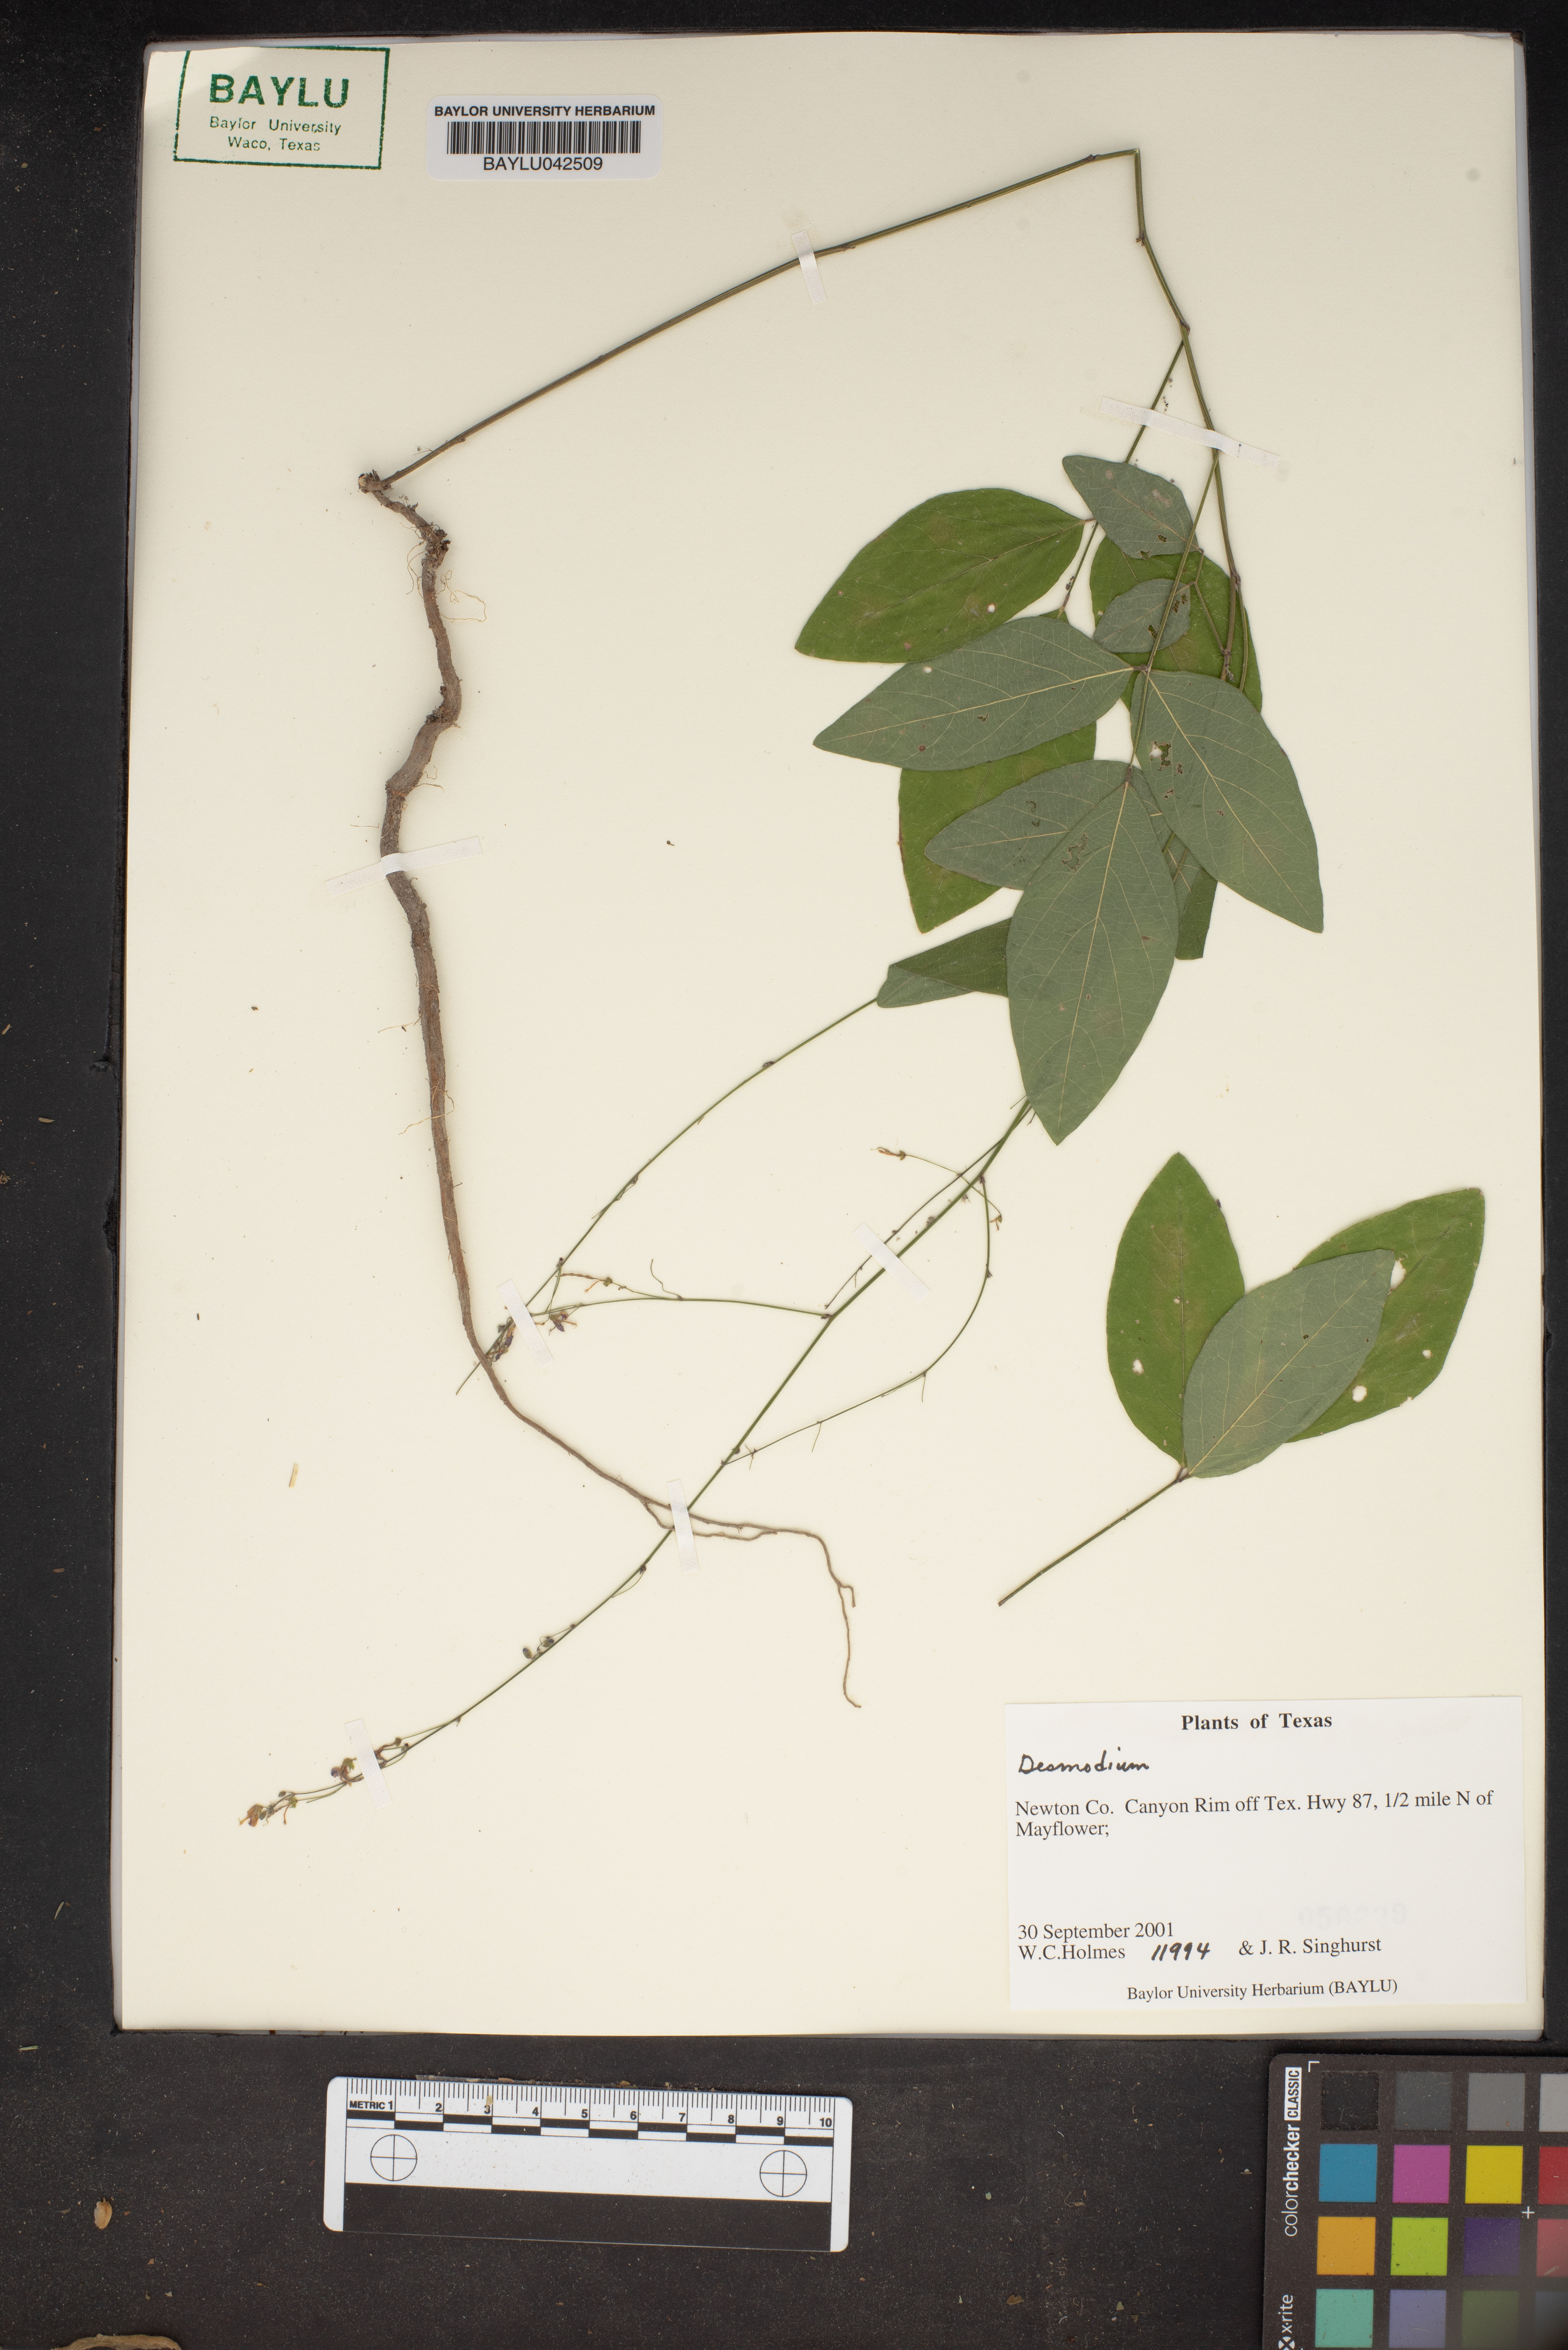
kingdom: Plantae
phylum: Tracheophyta
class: Magnoliopsida
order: Fabales
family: Fabaceae
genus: Desmodium
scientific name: Desmodium
